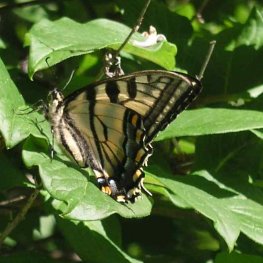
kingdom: Animalia
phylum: Arthropoda
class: Insecta
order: Lepidoptera
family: Papilionidae
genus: Pterourus
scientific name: Pterourus canadensis
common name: Canadian Tiger Swallowtail
